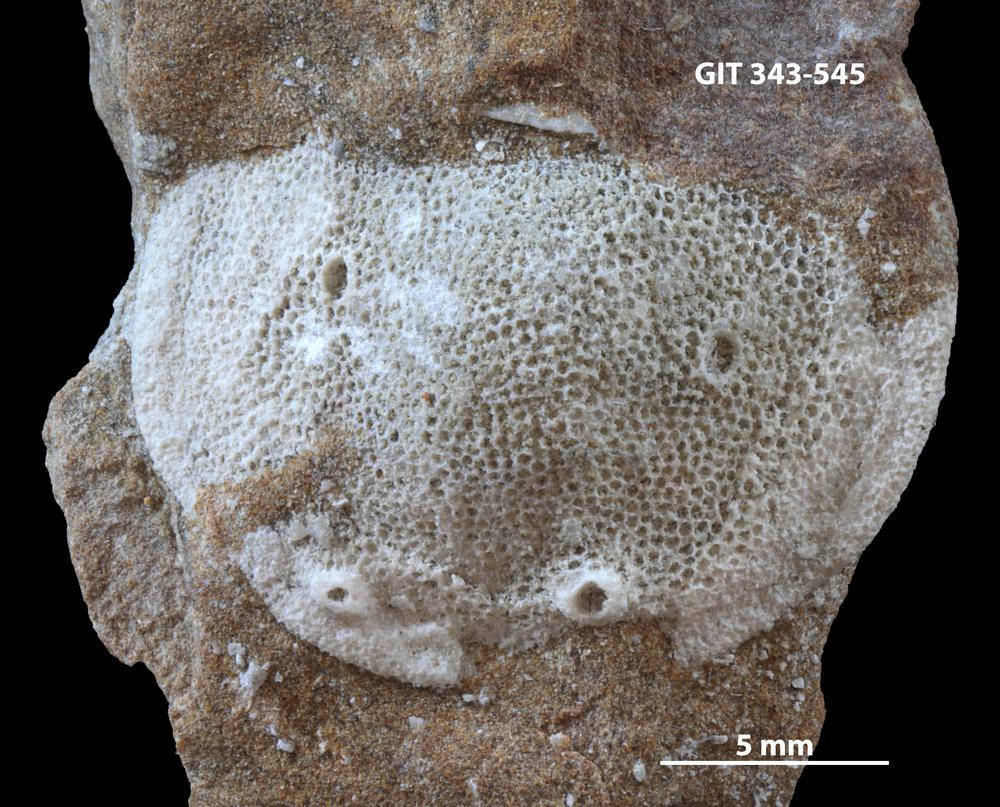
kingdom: Animalia
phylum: Bryozoa
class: Stenolaemata
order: Trepostomatida
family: Diplotrypidae
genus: Diplotrypa
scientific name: Diplotrypa
